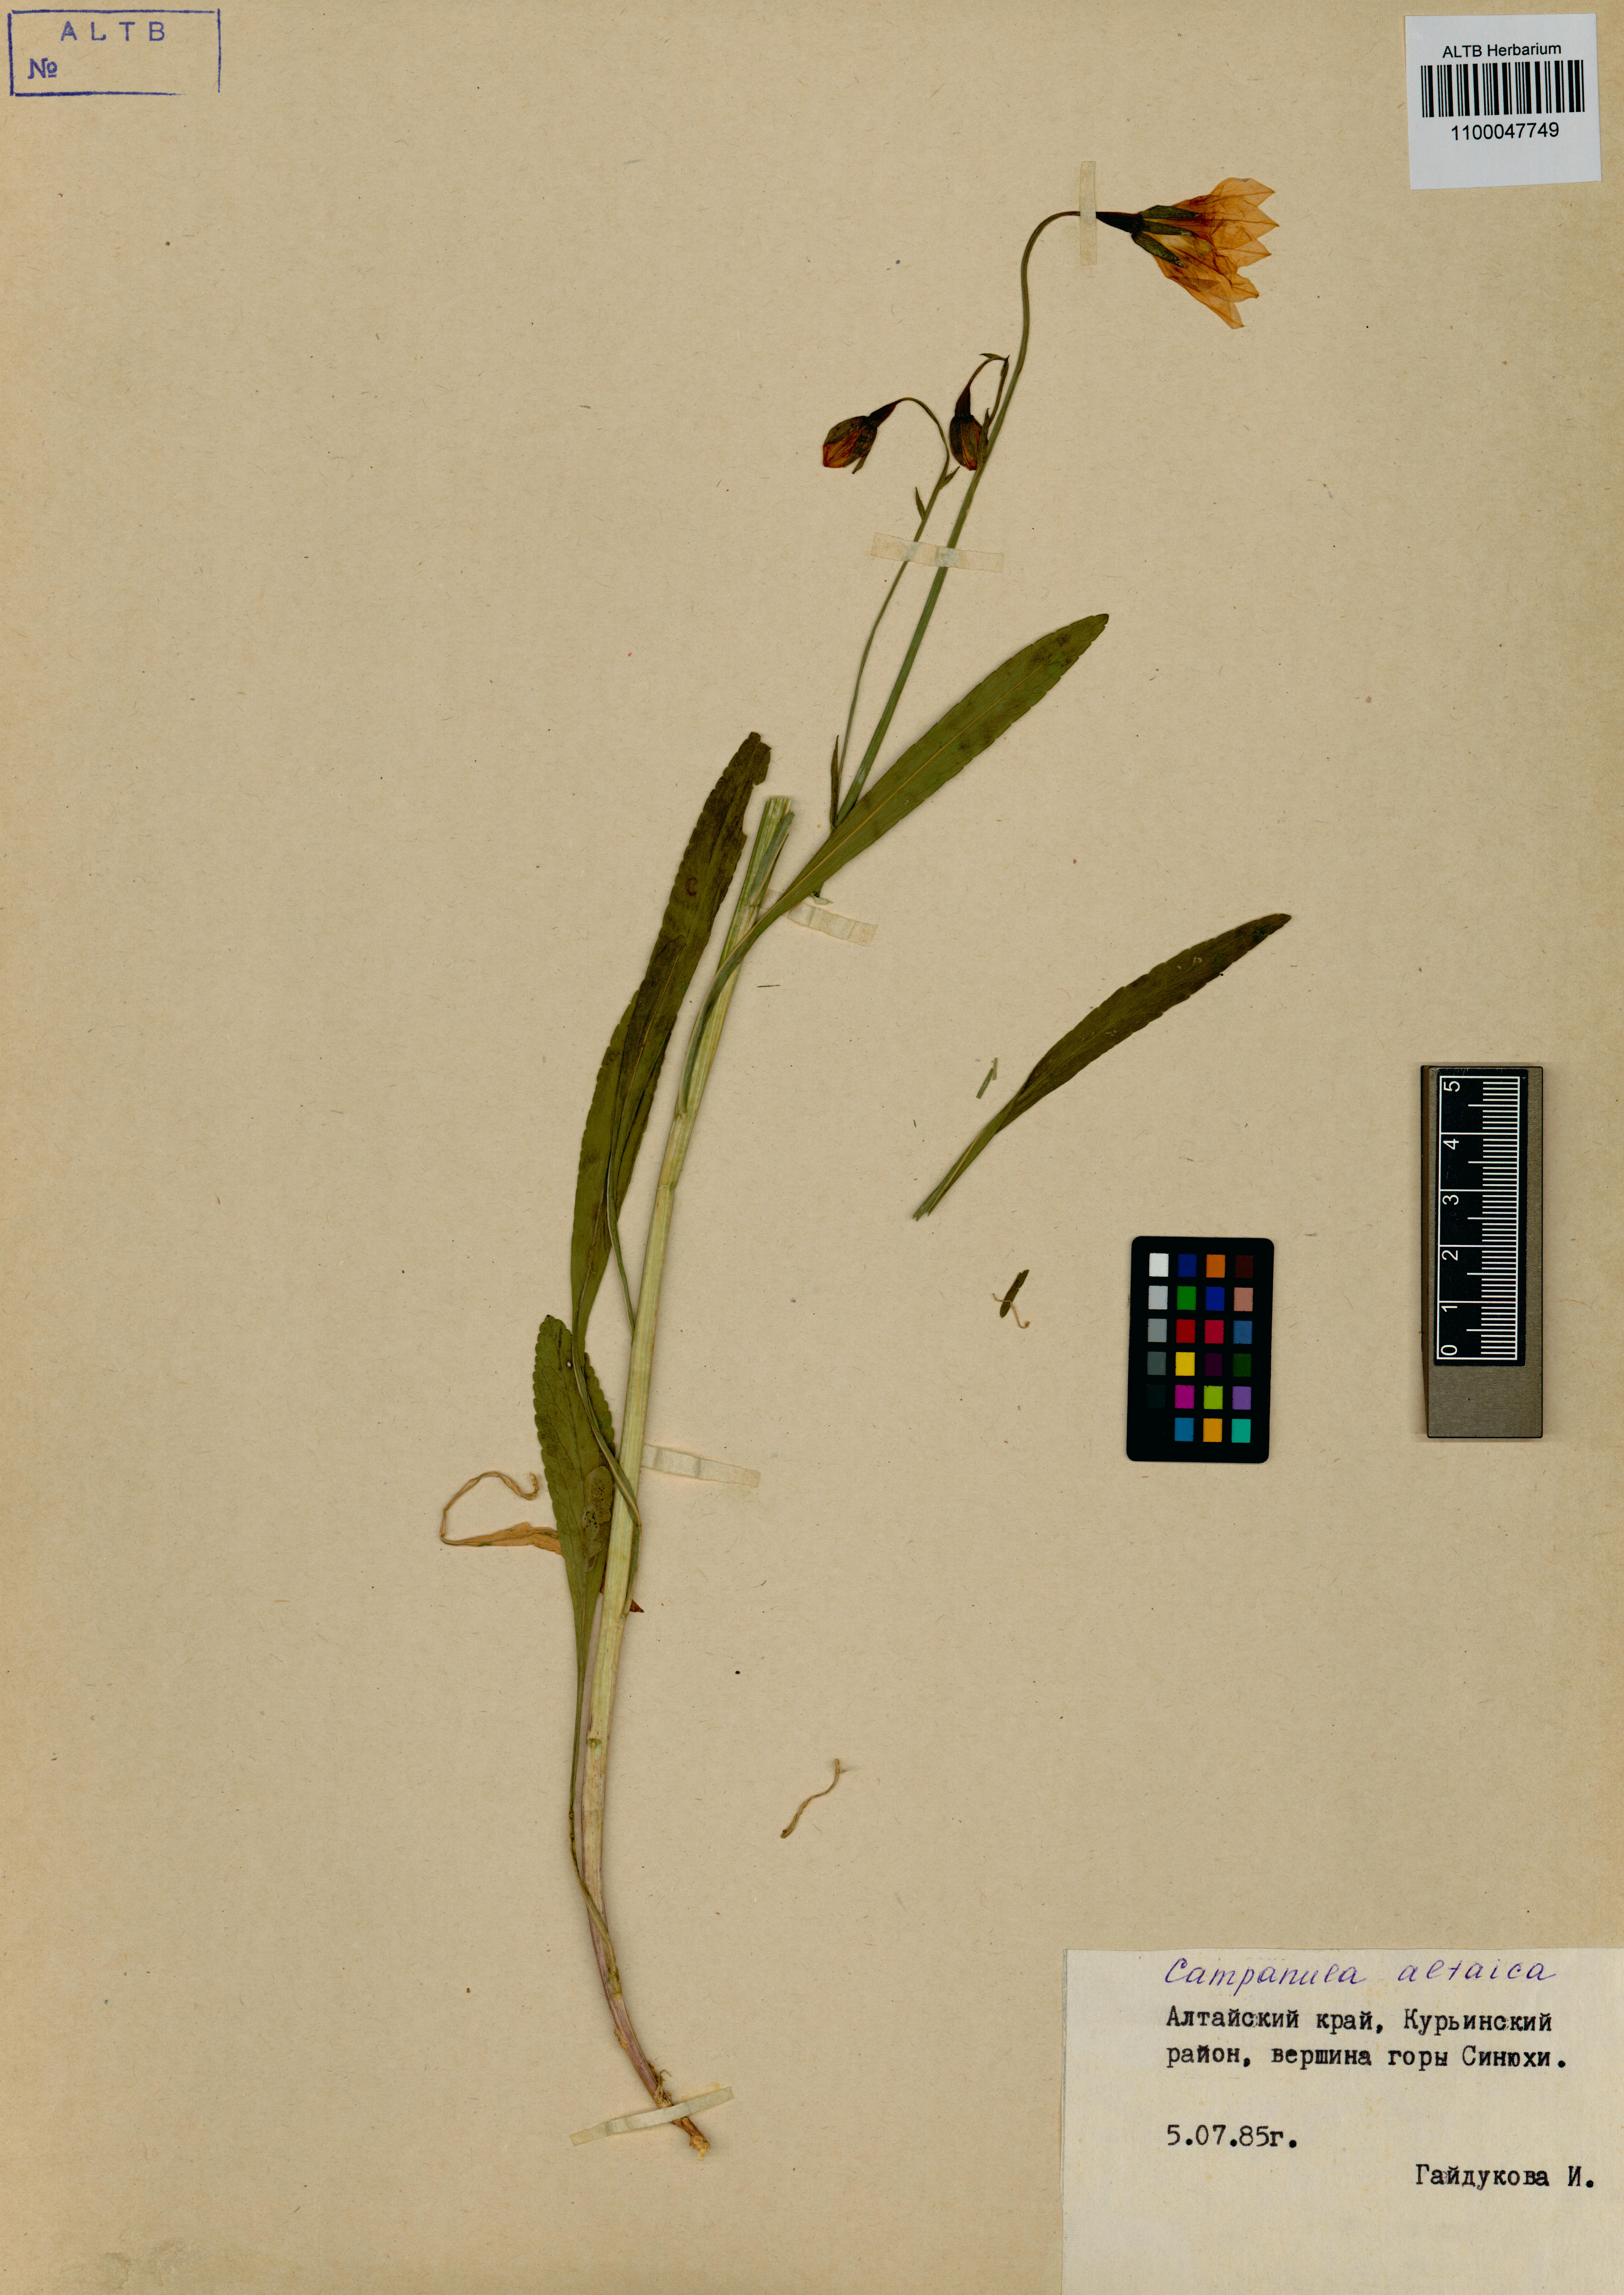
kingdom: Plantae
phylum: Tracheophyta
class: Magnoliopsida
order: Asterales
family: Campanulaceae
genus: Campanula
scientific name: Campanula stevenii
